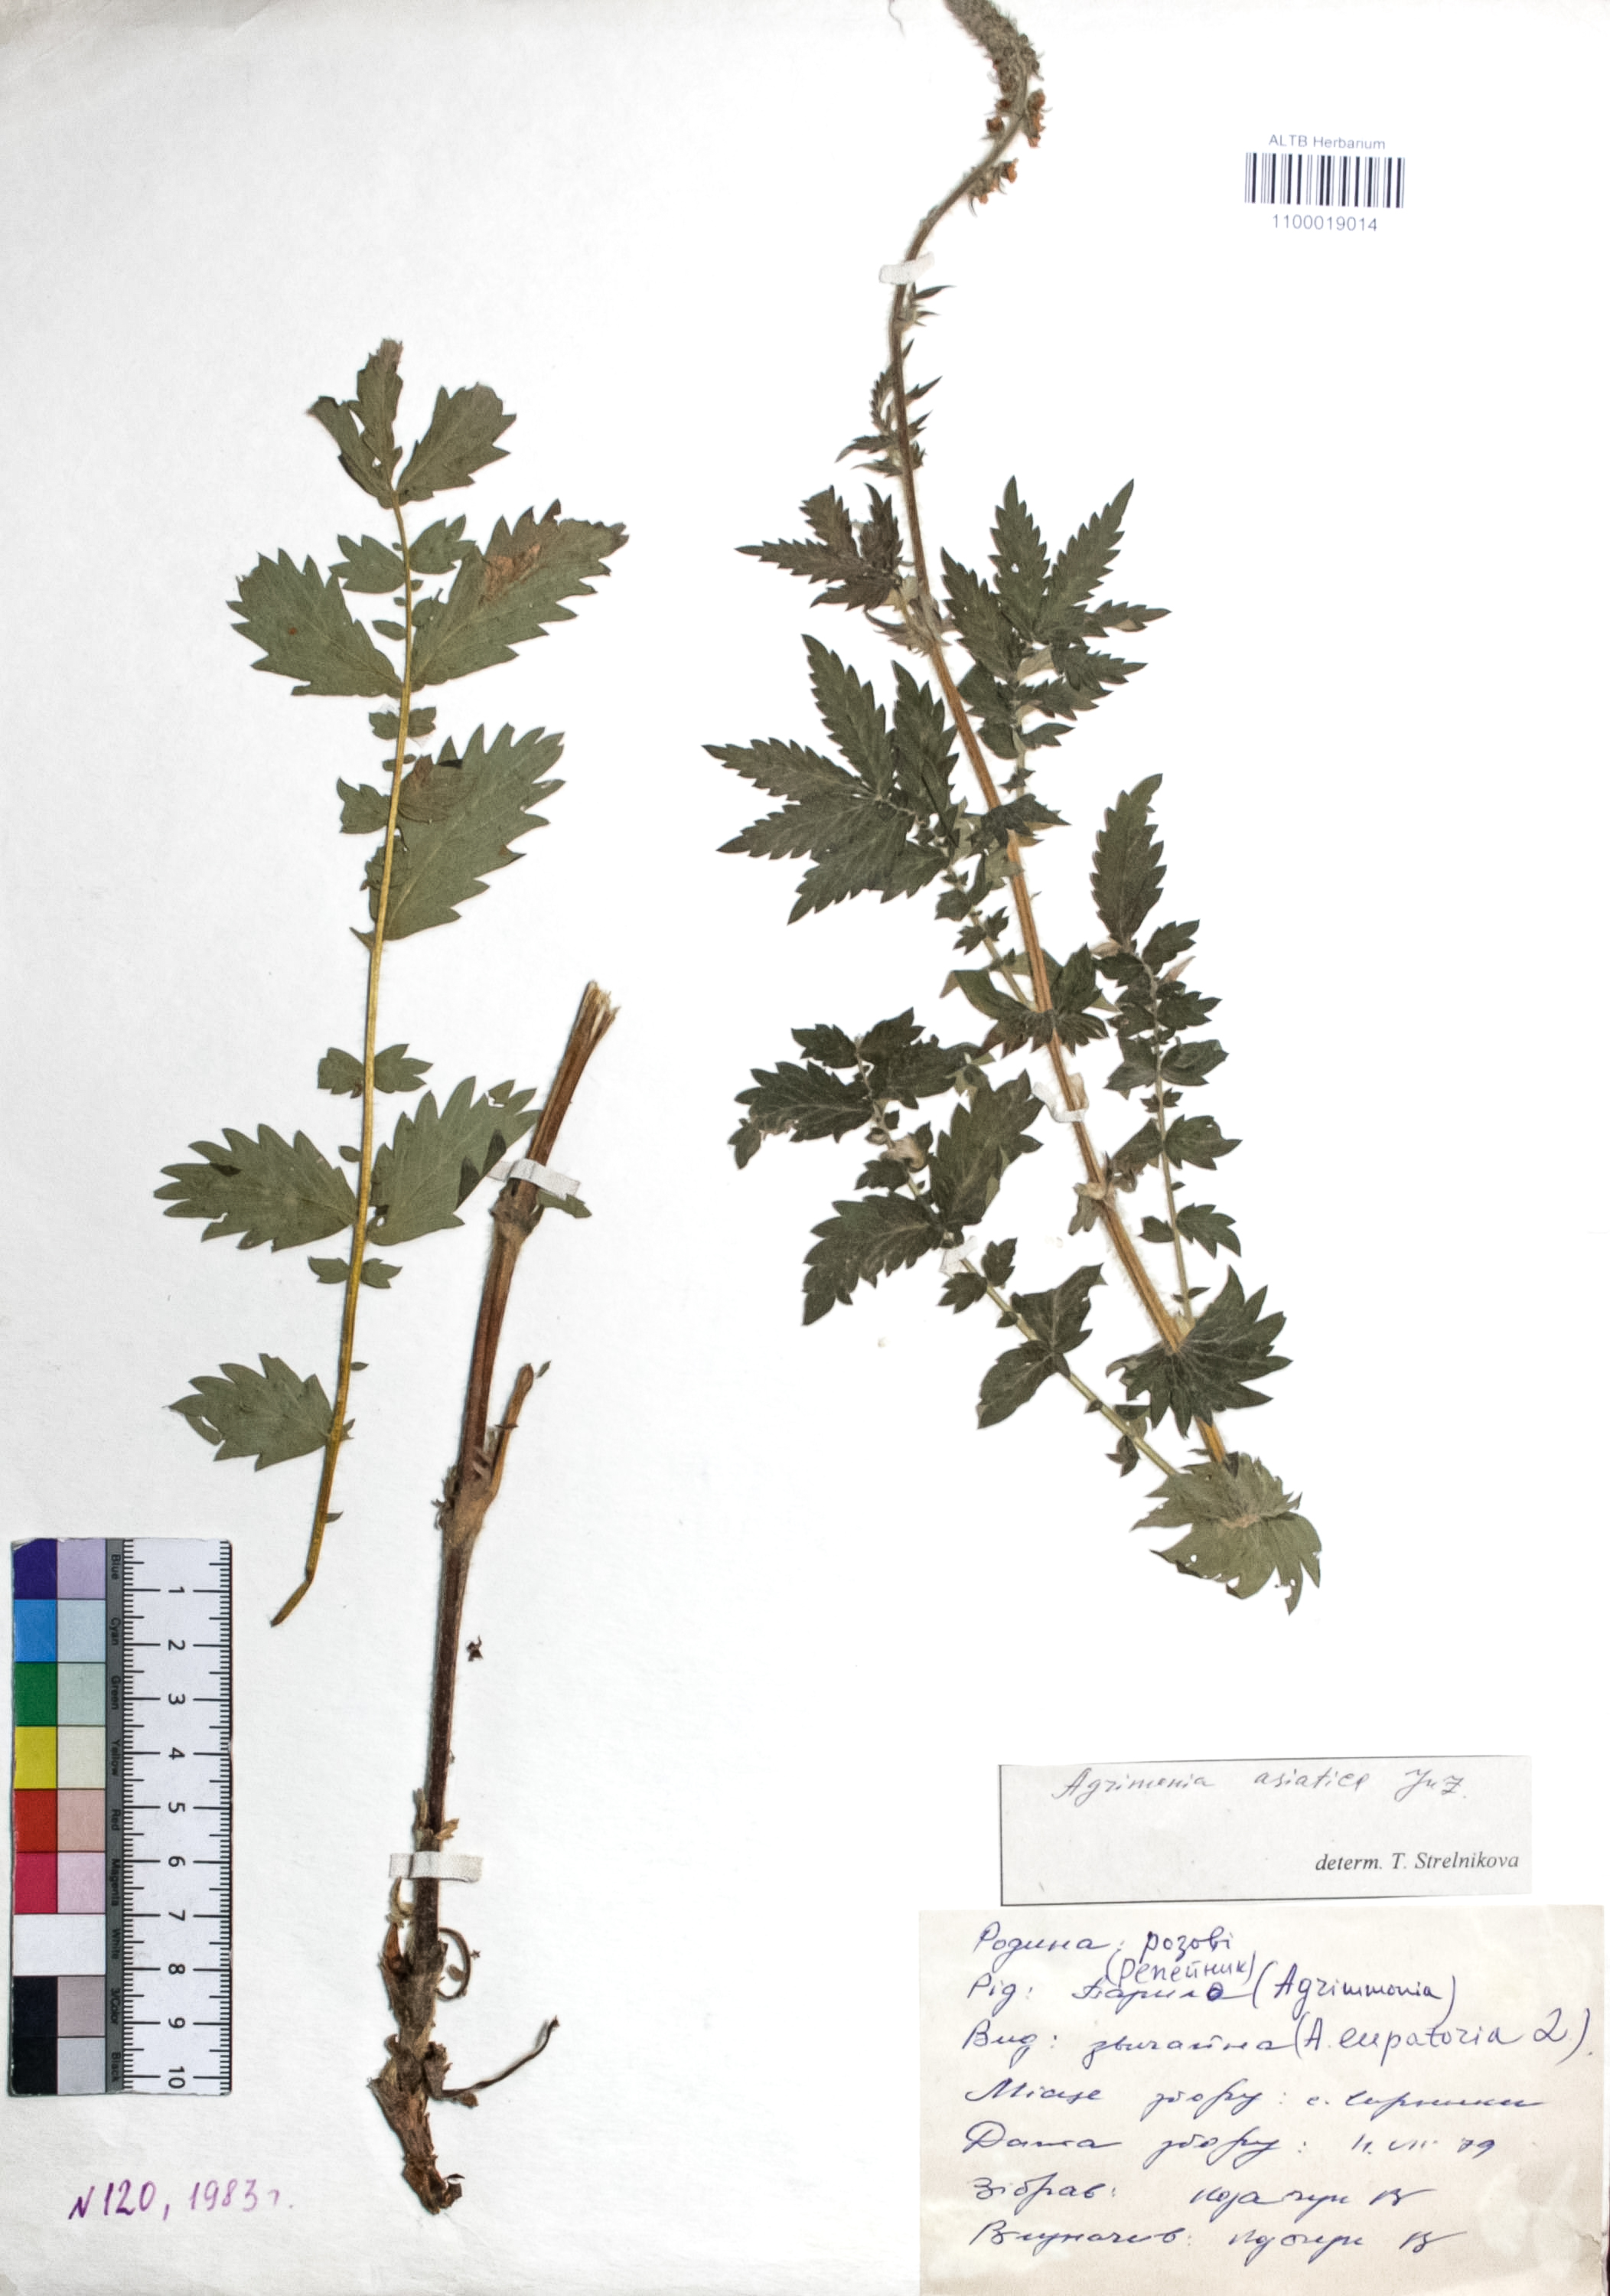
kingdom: Plantae
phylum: Tracheophyta
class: Magnoliopsida
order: Rosales
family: Rosaceae
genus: Agrimonia
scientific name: Agrimonia eupatoria
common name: Agrimony
